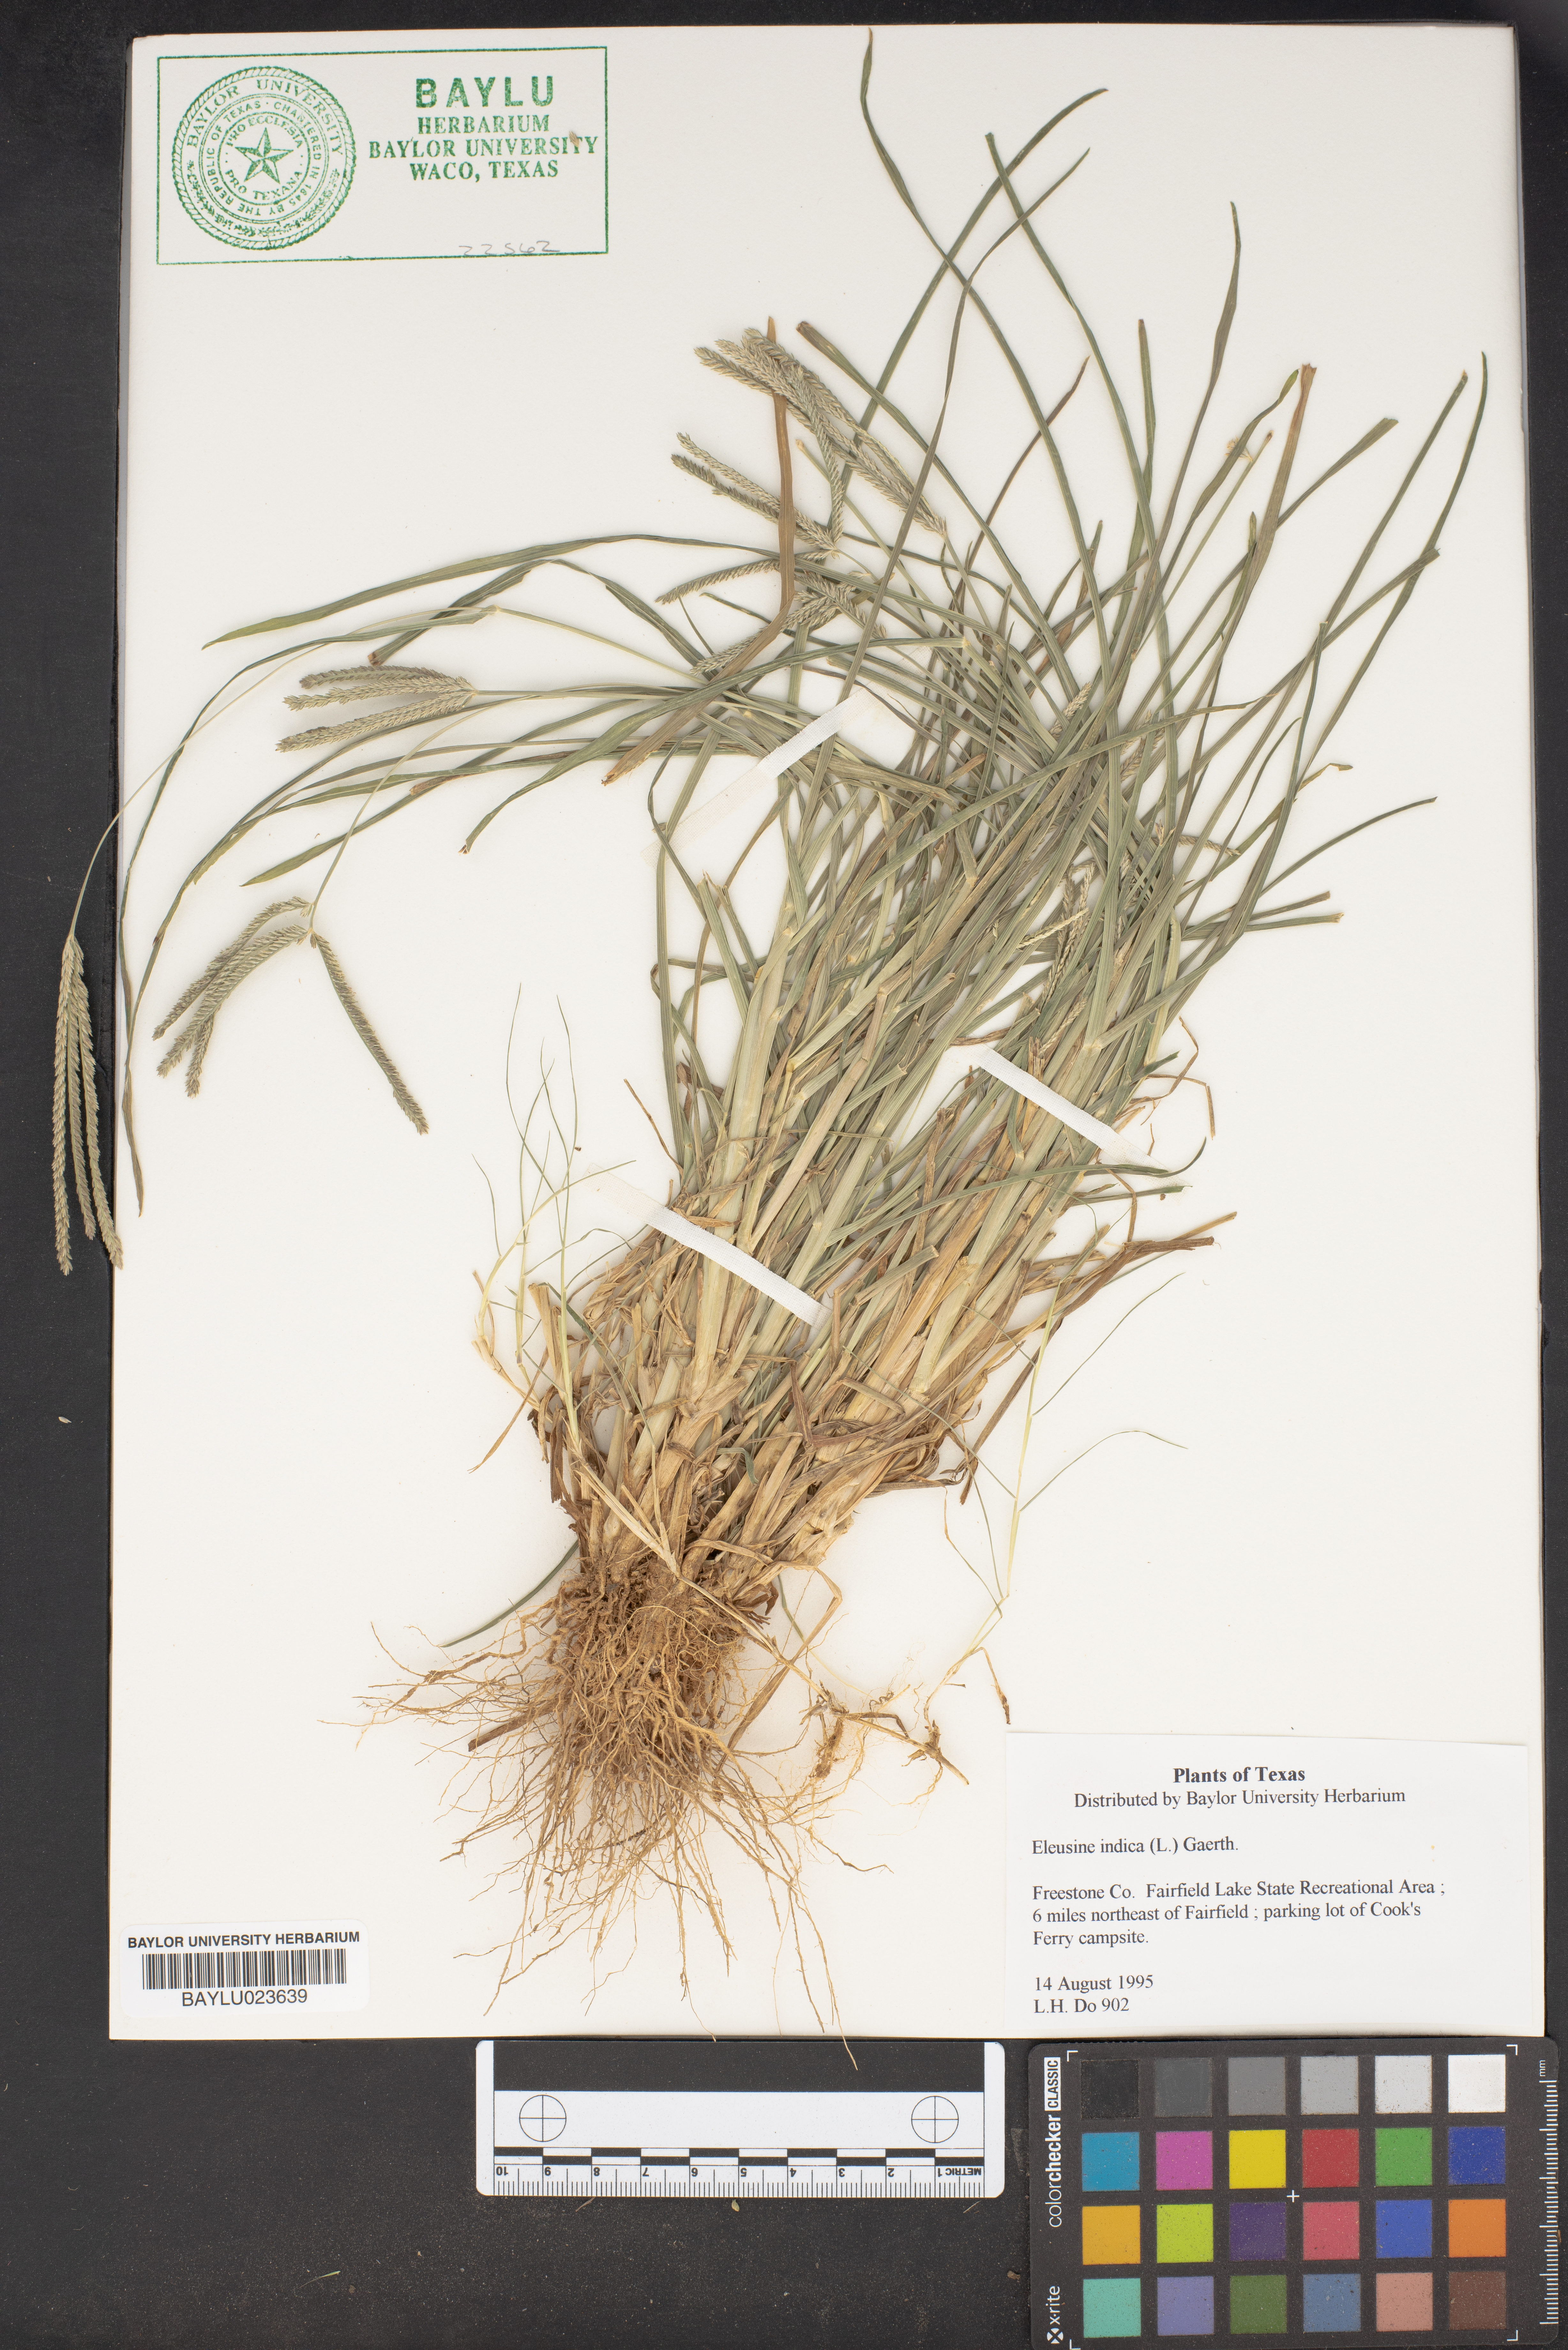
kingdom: Plantae
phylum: Tracheophyta
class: Liliopsida
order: Poales
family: Poaceae
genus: Eleusine
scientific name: Eleusine indica
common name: Yard-grass
